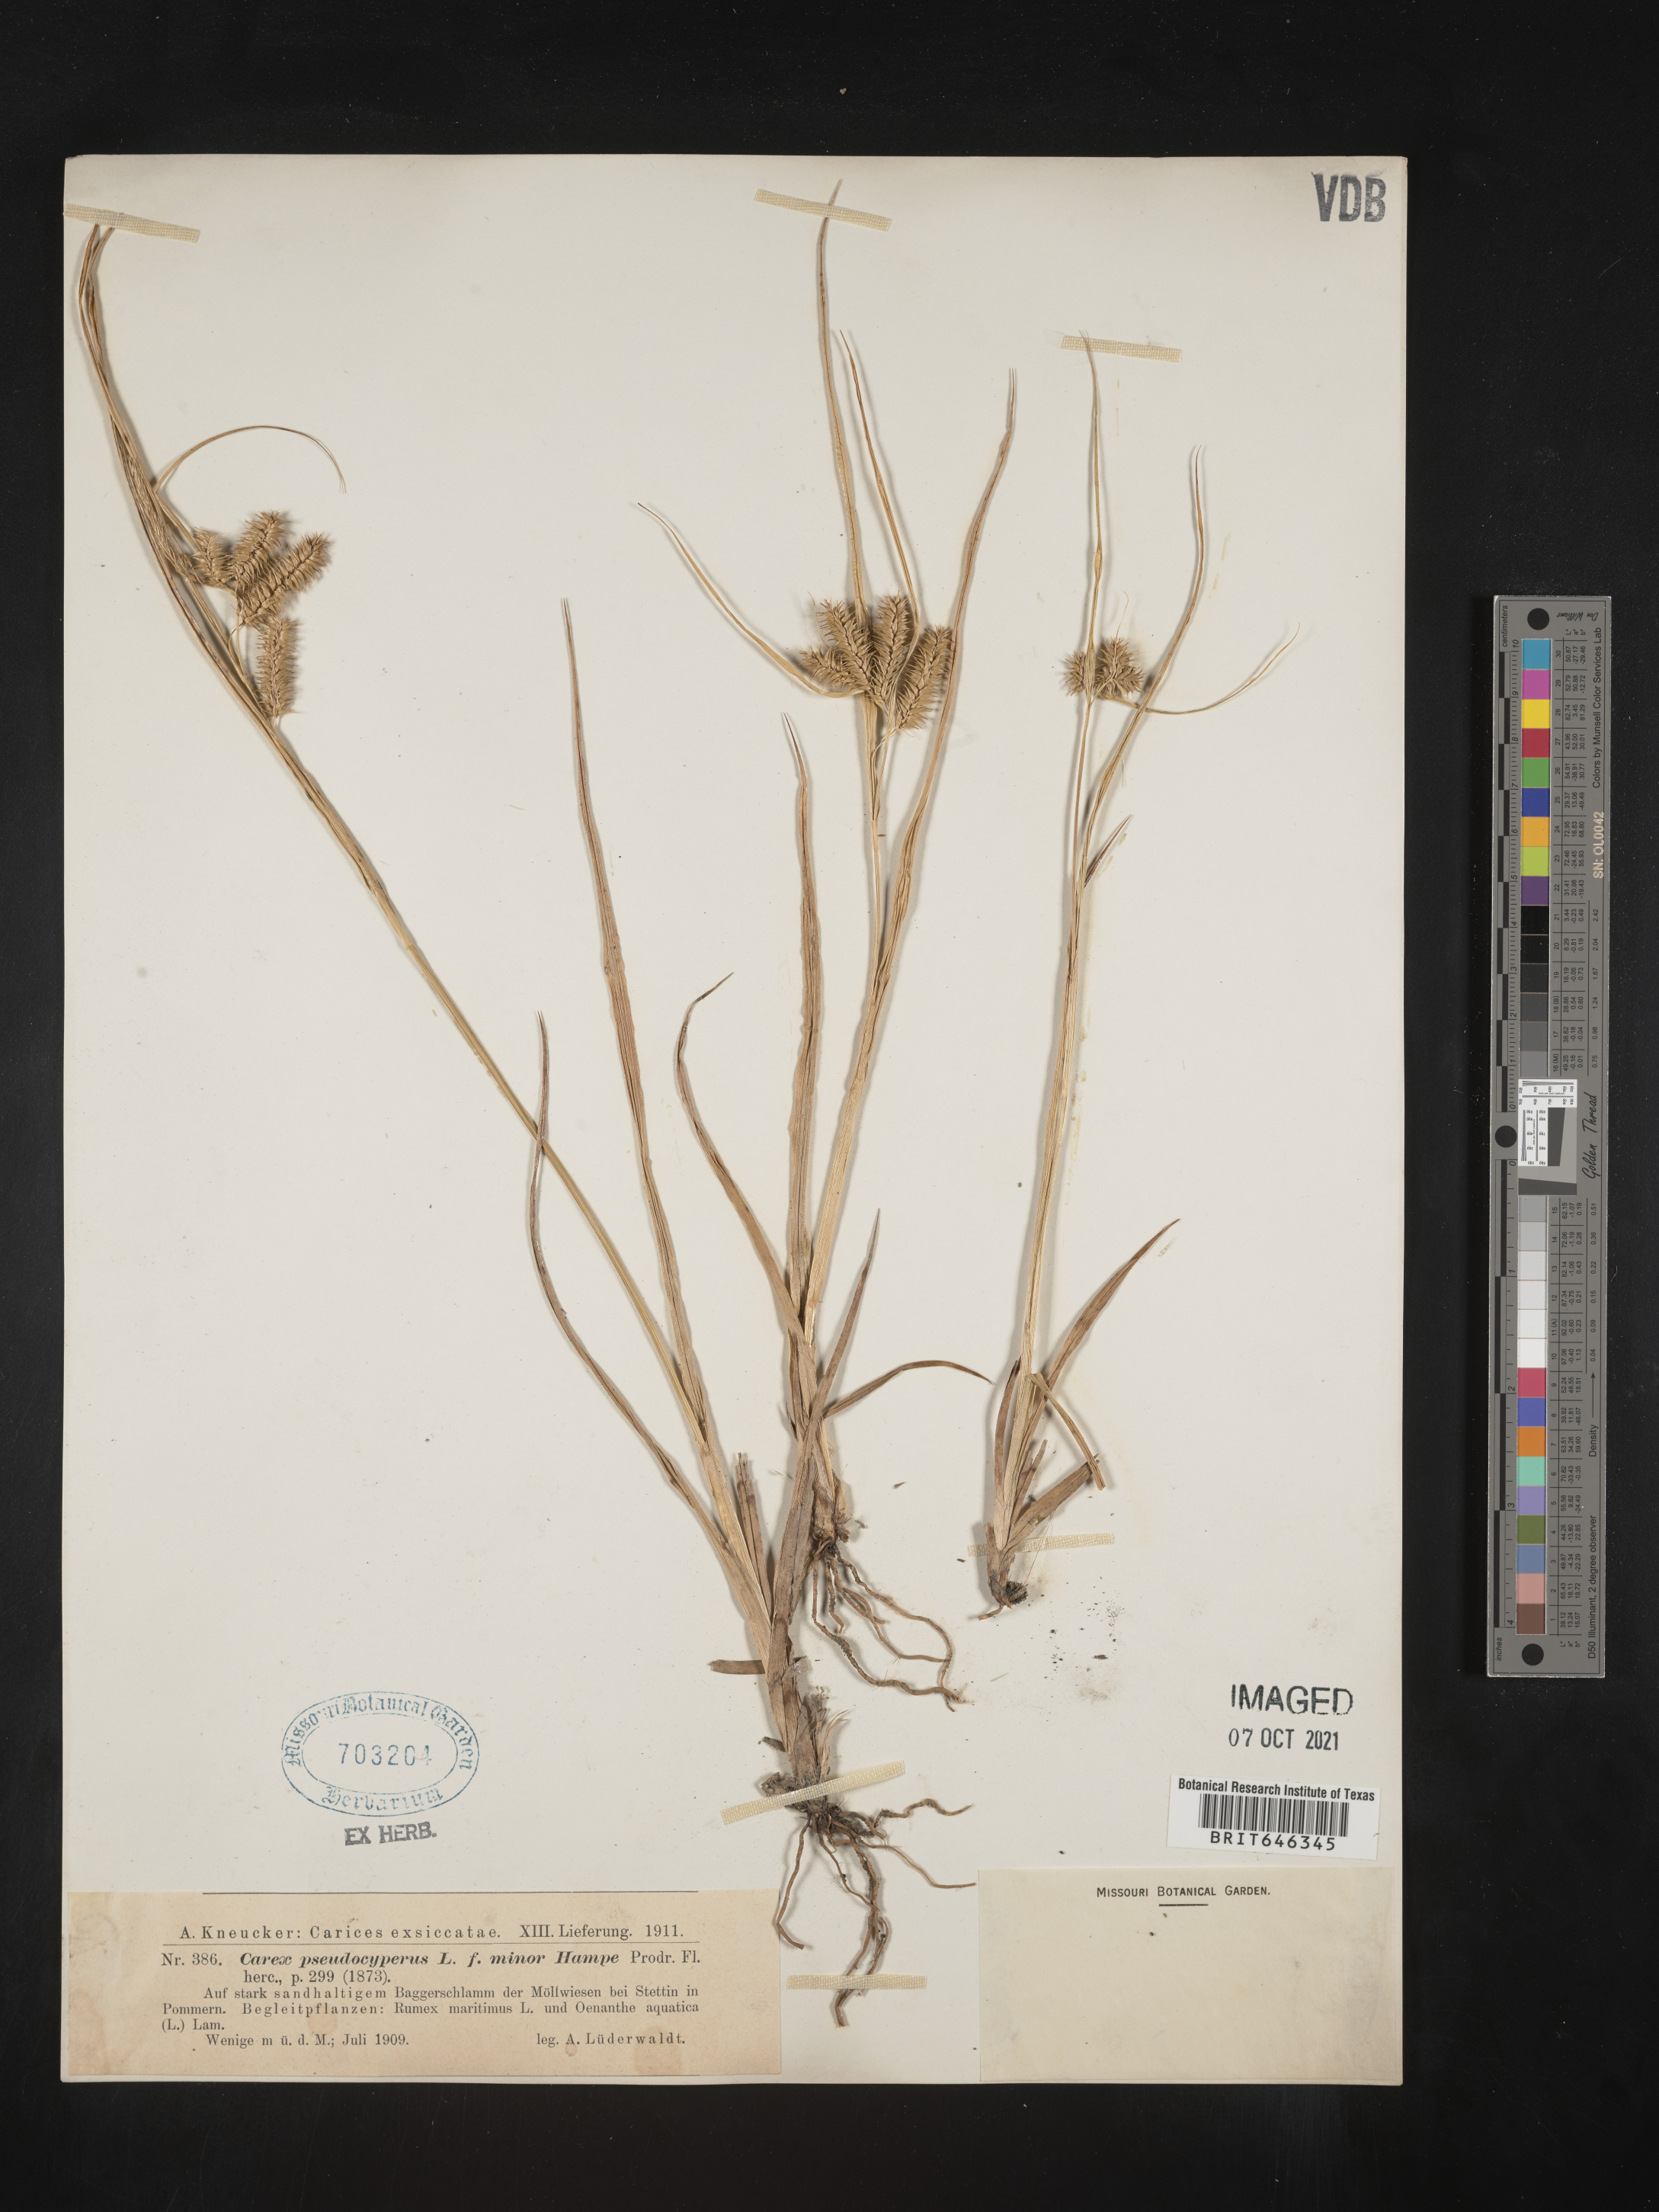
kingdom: Plantae
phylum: Tracheophyta
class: Liliopsida
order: Poales
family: Cyperaceae
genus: Carex
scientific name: Carex pseudocyperus
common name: Cyperus sedge
